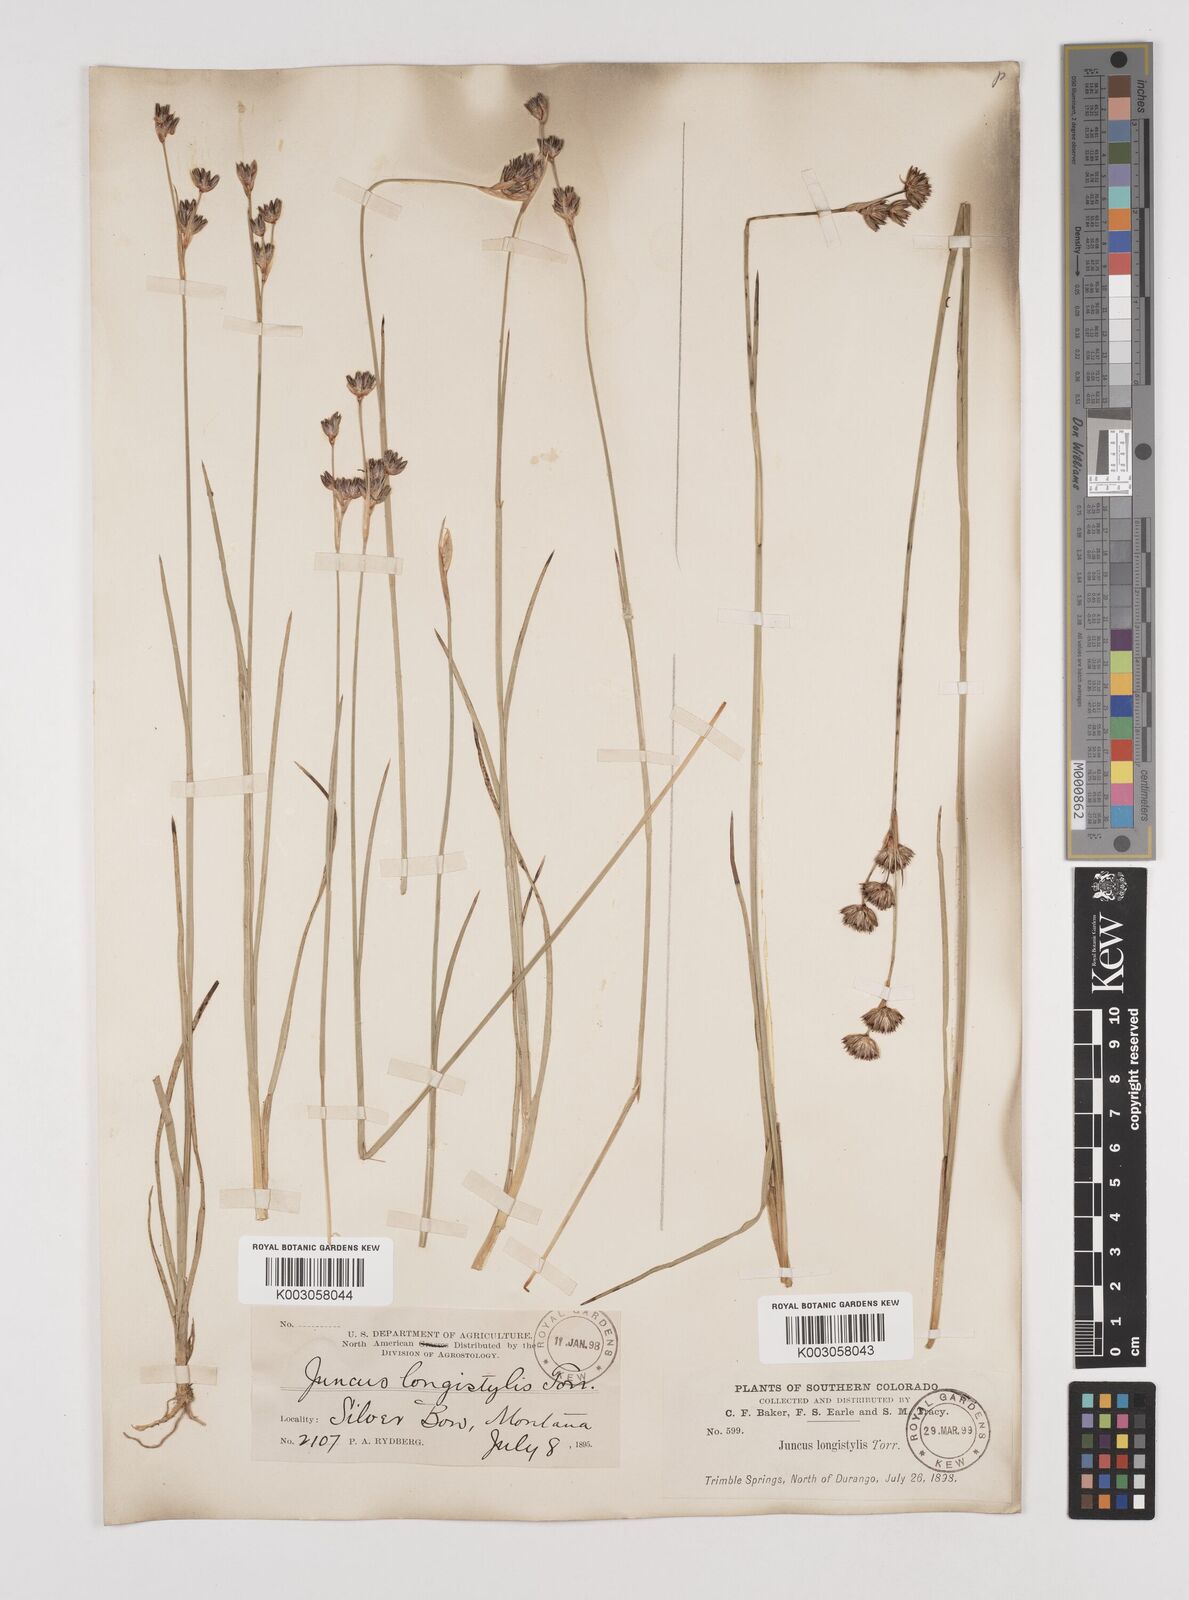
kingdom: Plantae
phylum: Tracheophyta
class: Liliopsida
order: Poales
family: Juncaceae
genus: Juncus
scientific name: Juncus longistylis
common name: Long-style rush
